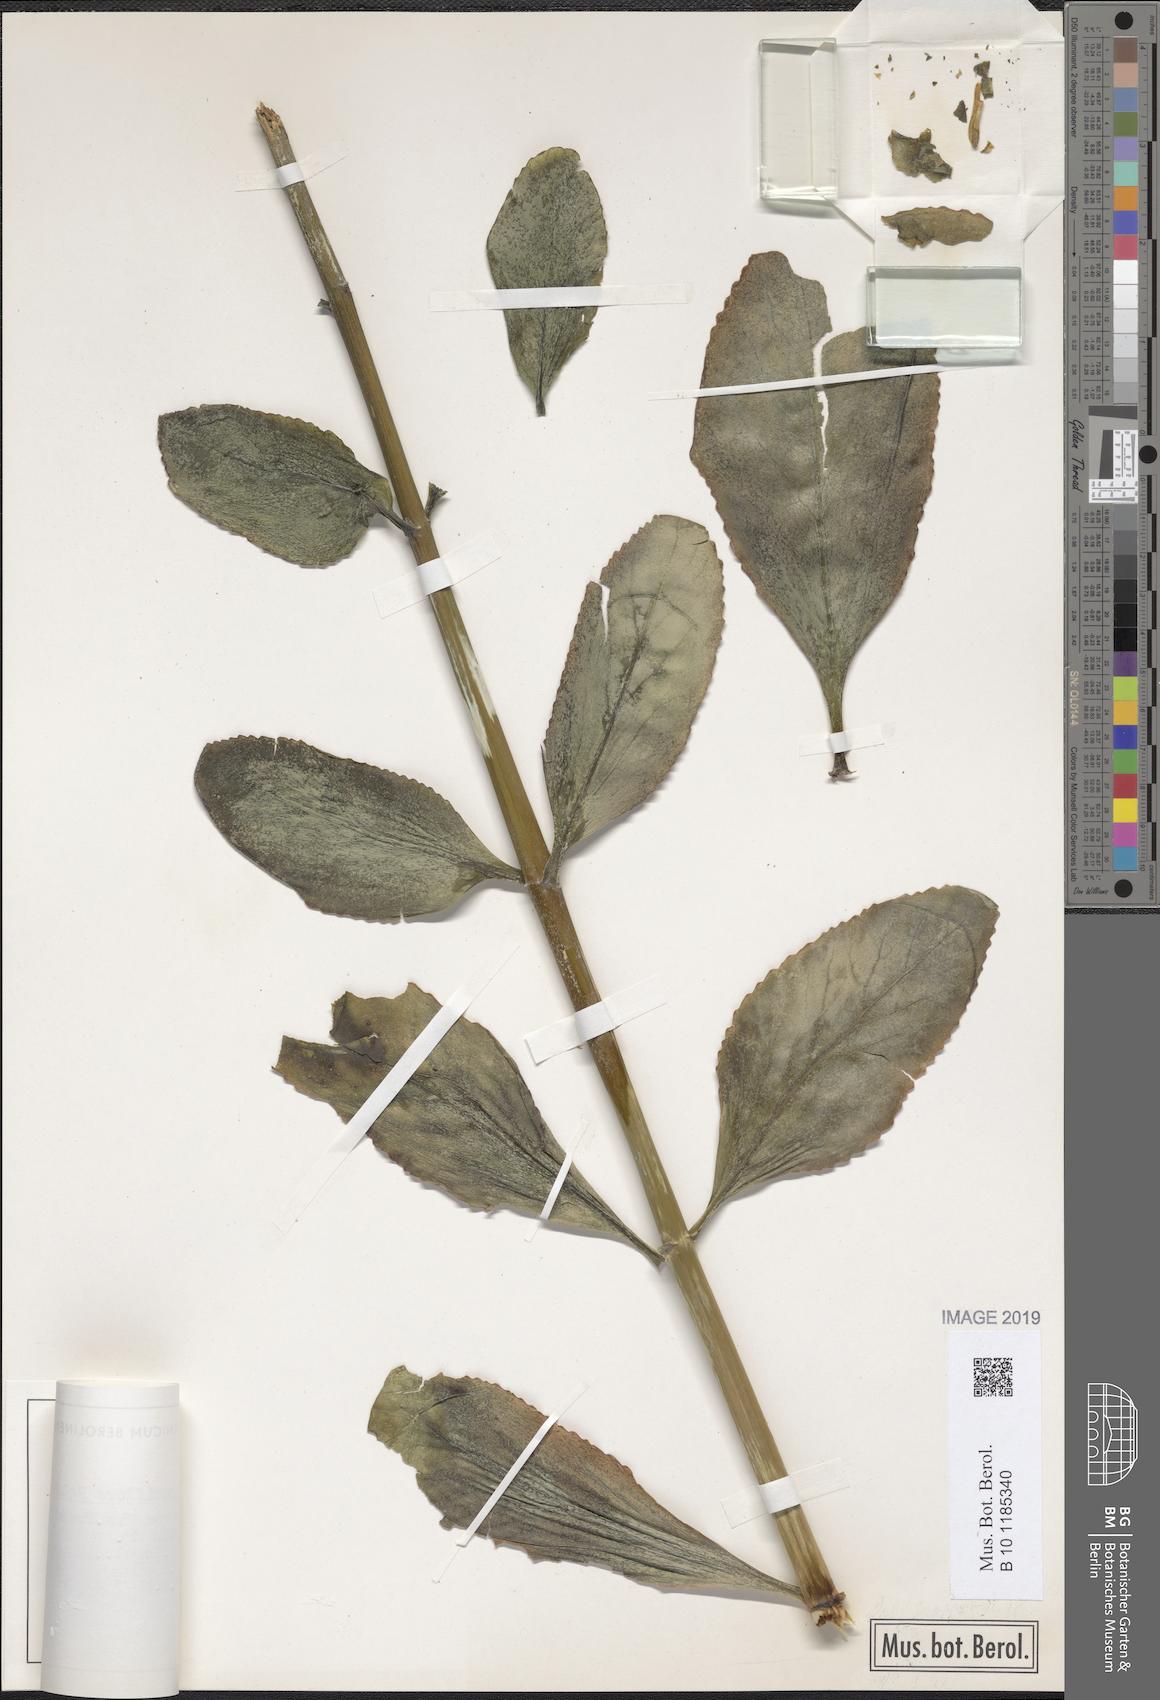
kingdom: Plantae
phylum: Tracheophyta
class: Magnoliopsida
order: Saxifragales
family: Crassulaceae
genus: Kalanchoe
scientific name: Kalanchoe densiflora
